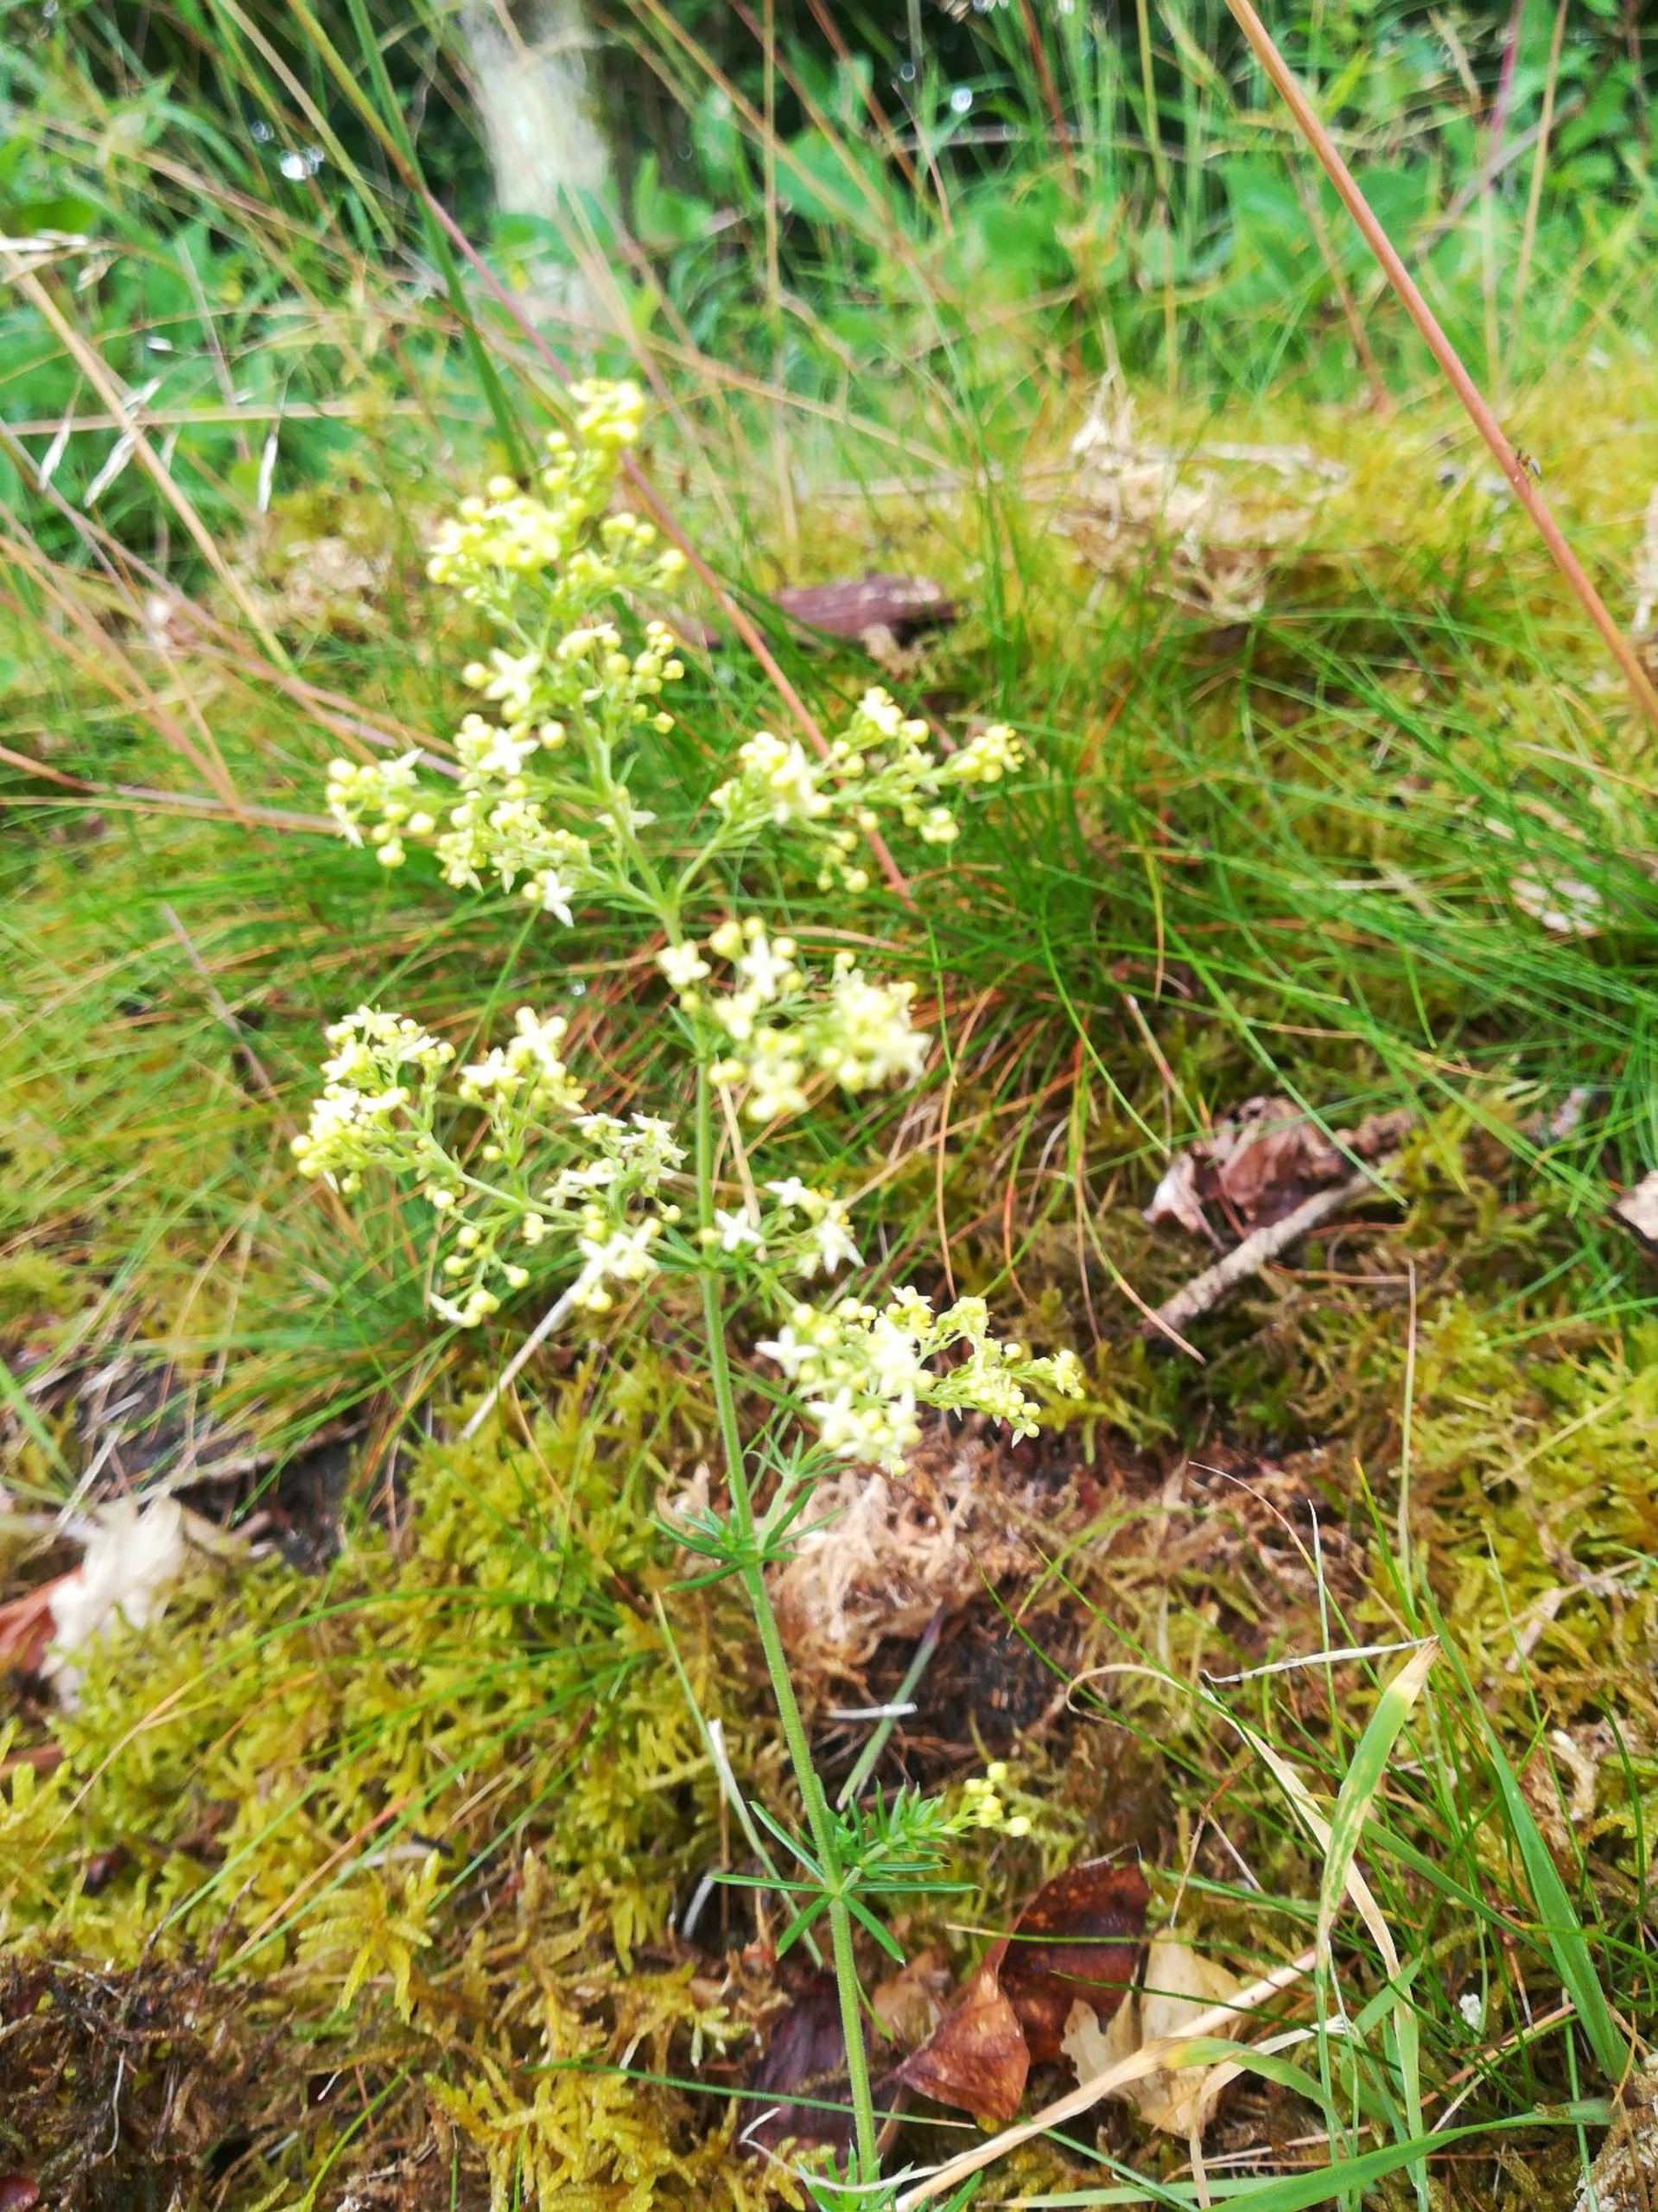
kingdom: Plantae
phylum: Tracheophyta
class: Magnoliopsida
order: Gentianales
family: Rubiaceae
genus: Galium
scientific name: Galium
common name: Hvidgul snerre
